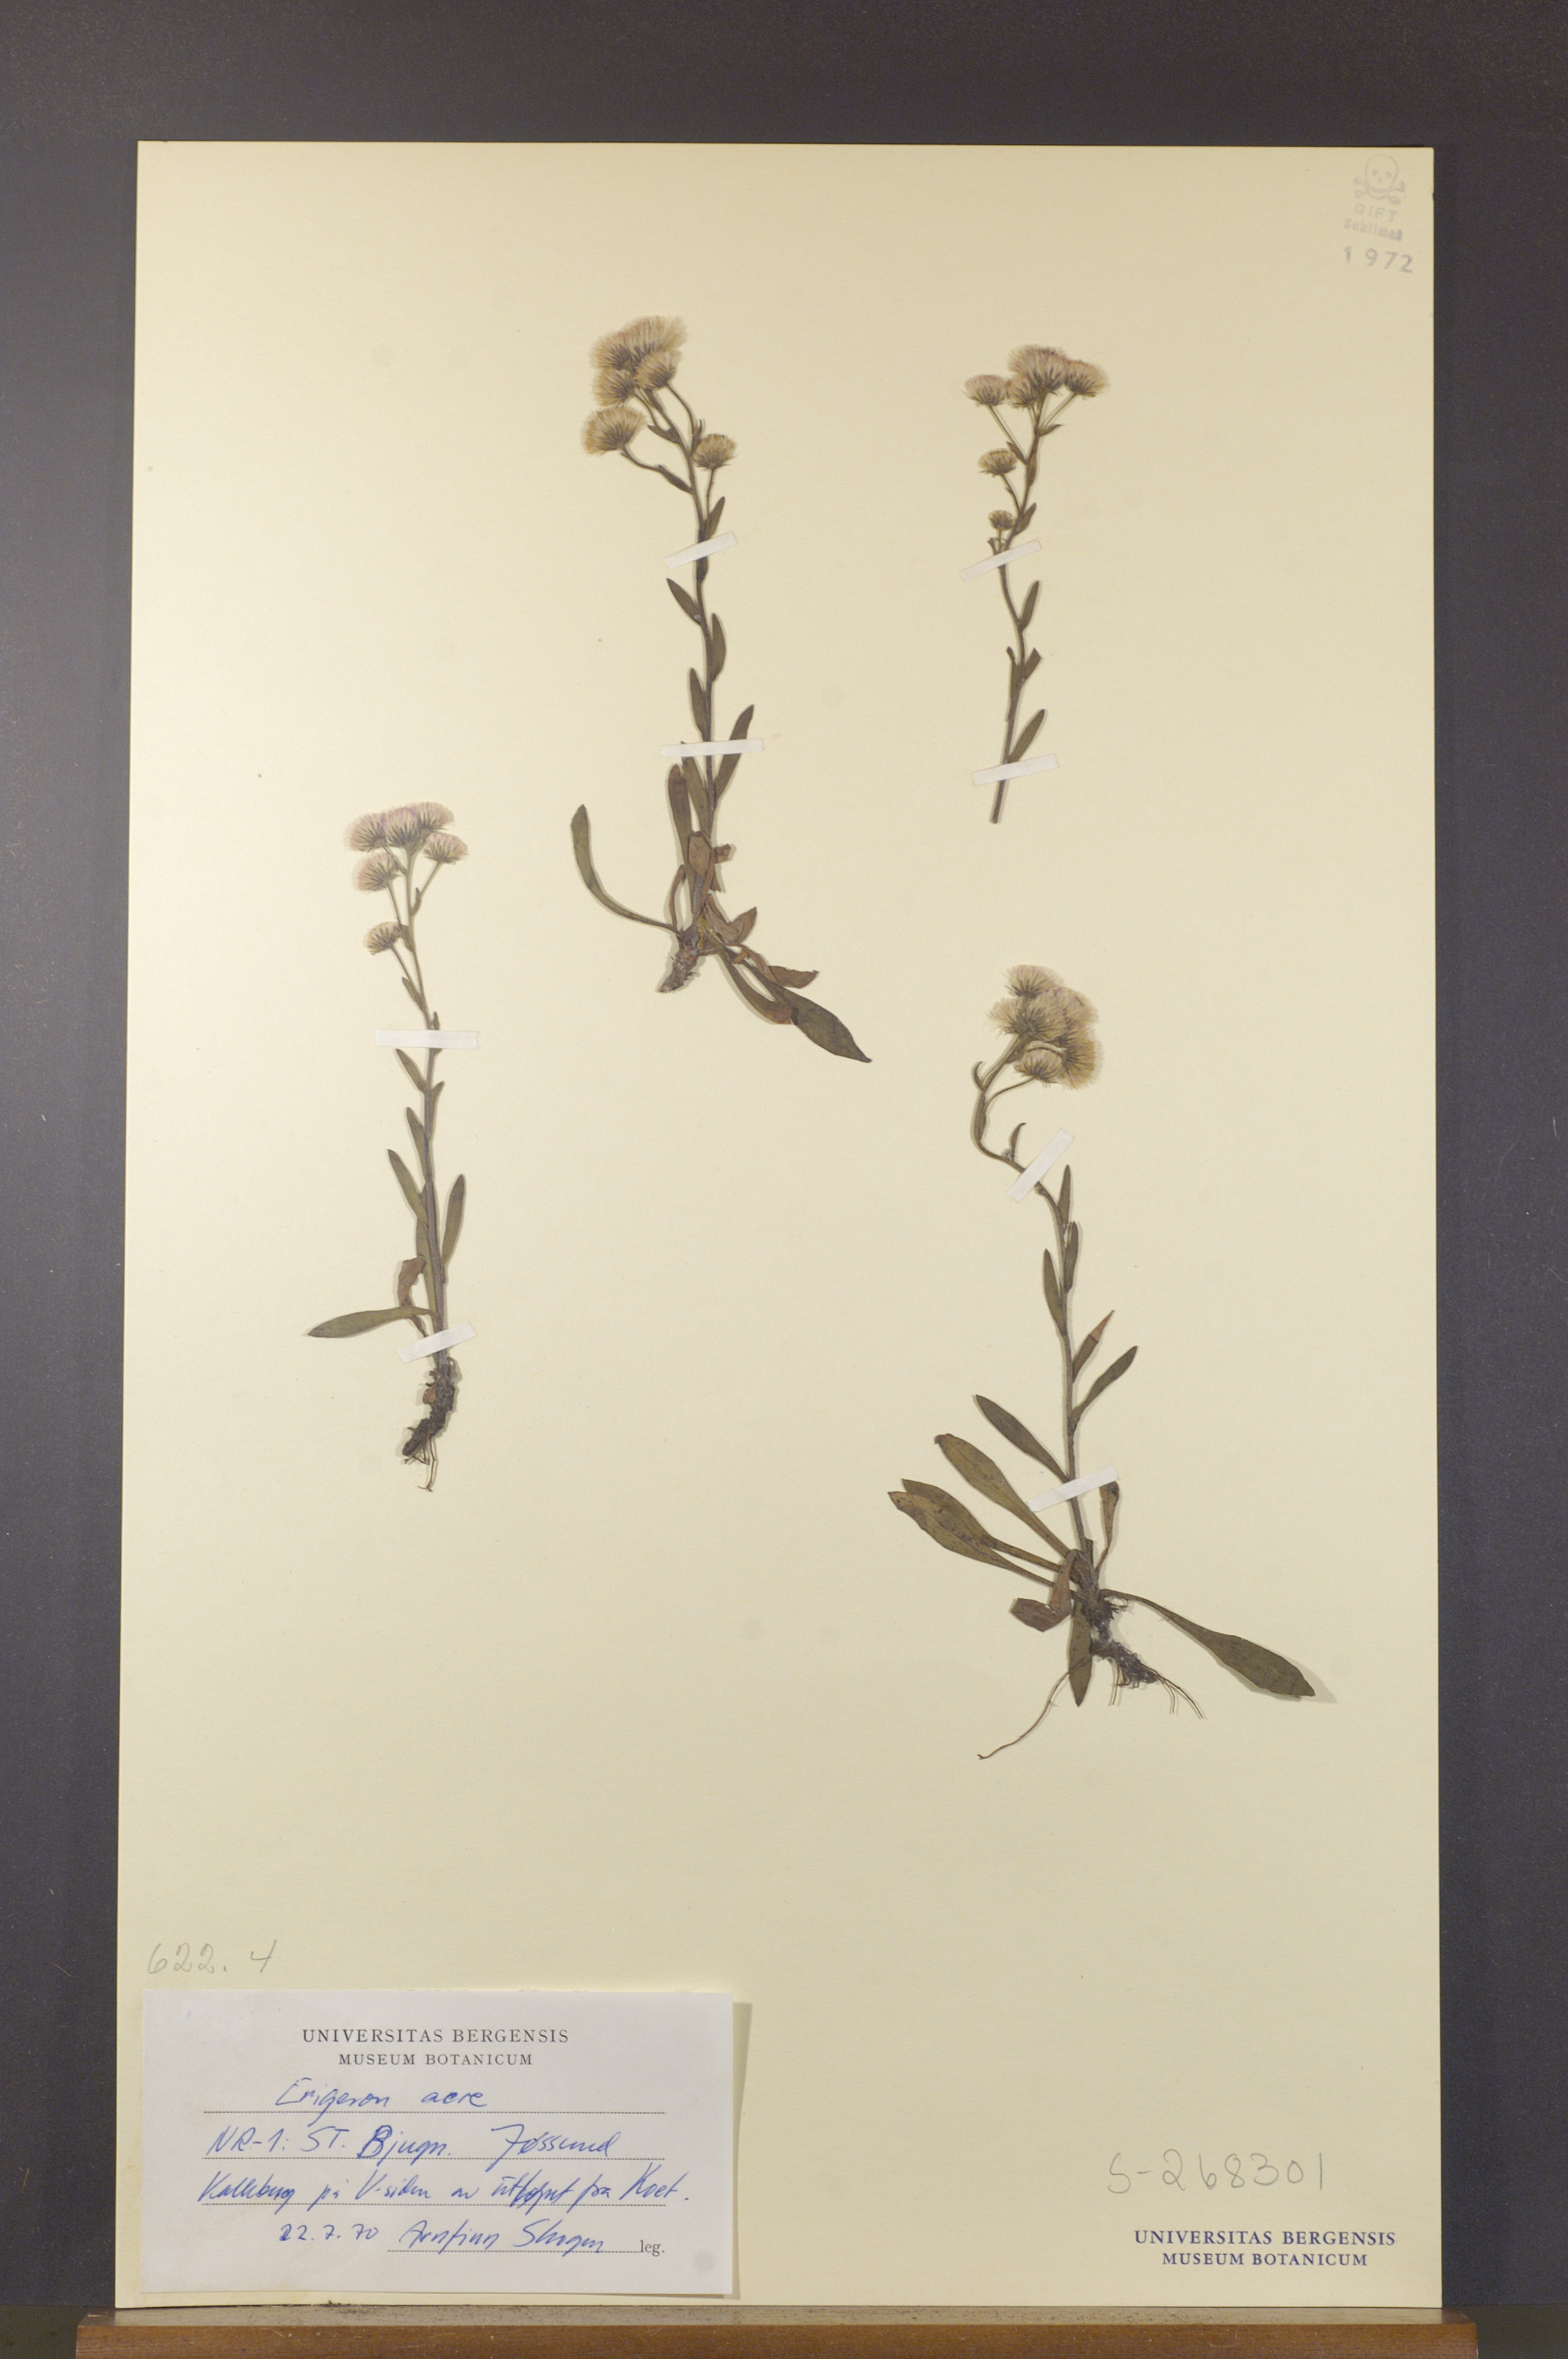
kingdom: Plantae
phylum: Tracheophyta
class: Magnoliopsida
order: Asterales
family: Asteraceae
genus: Erigeron
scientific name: Erigeron acris
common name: Blue fleabane
